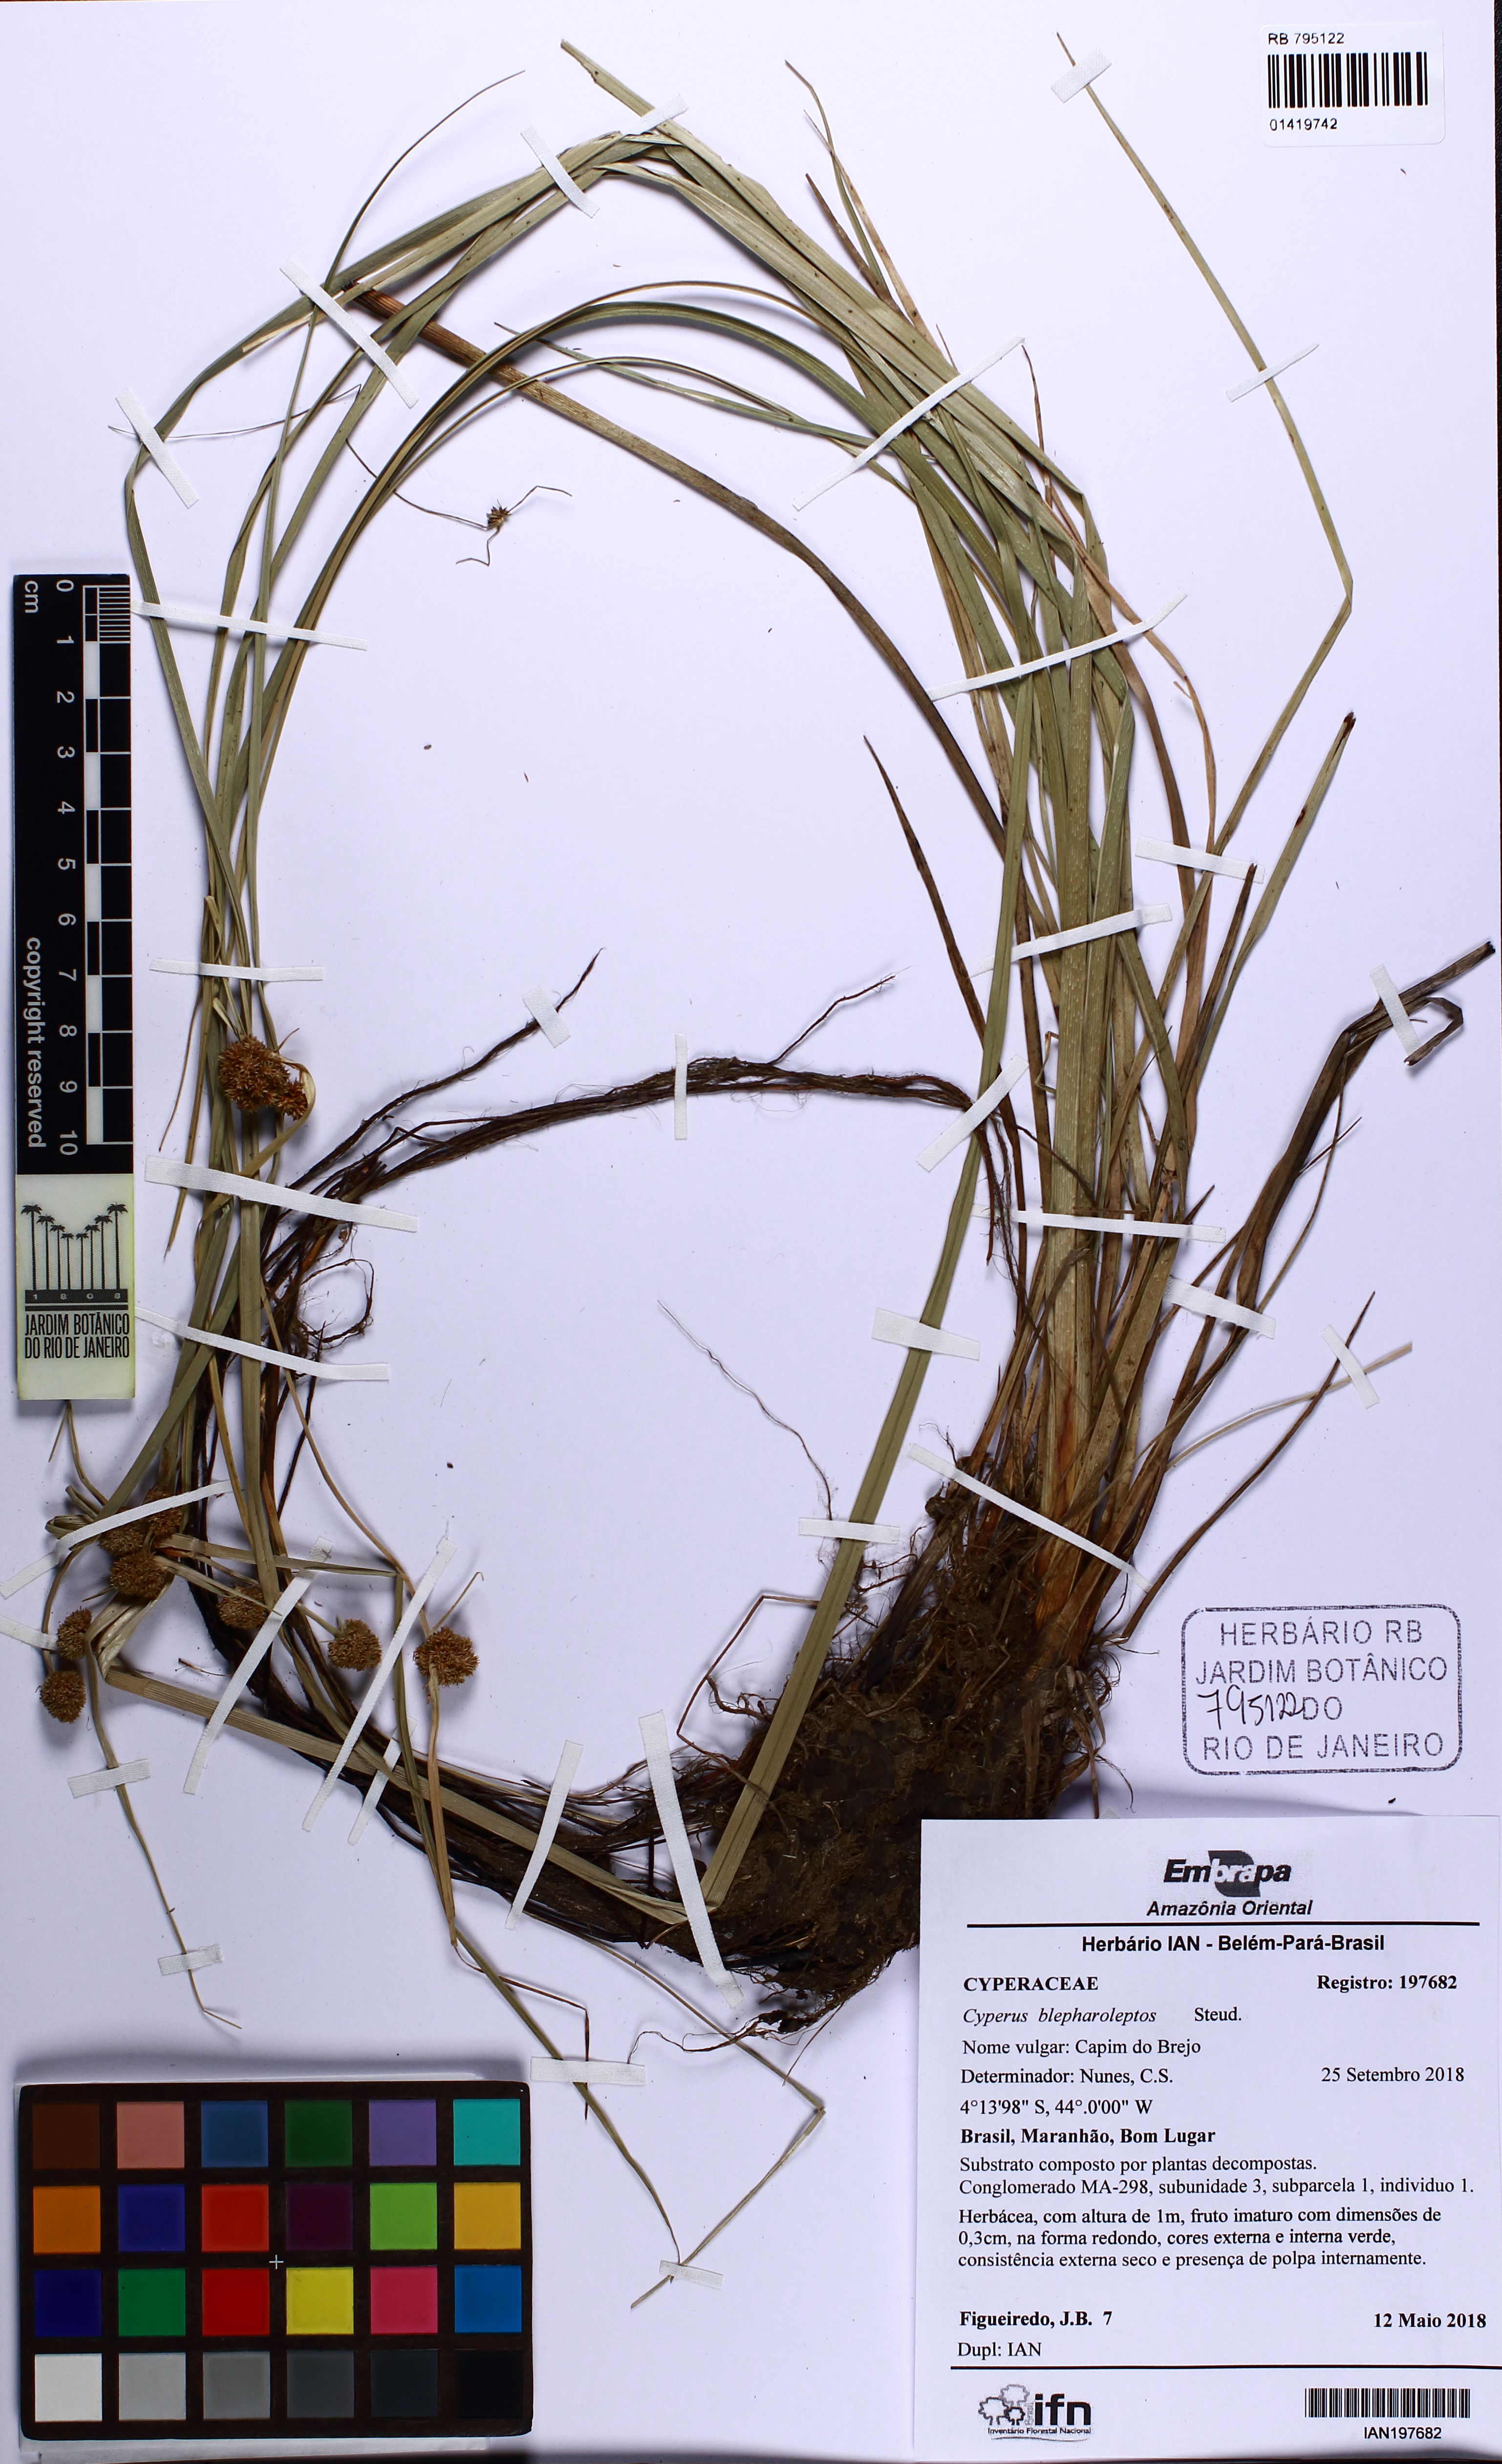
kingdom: Plantae
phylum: Tracheophyta
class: Liliopsida
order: Poales
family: Cyperaceae
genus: Cyperus
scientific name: Cyperus blepharoleptos
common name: Cuban bulrush
